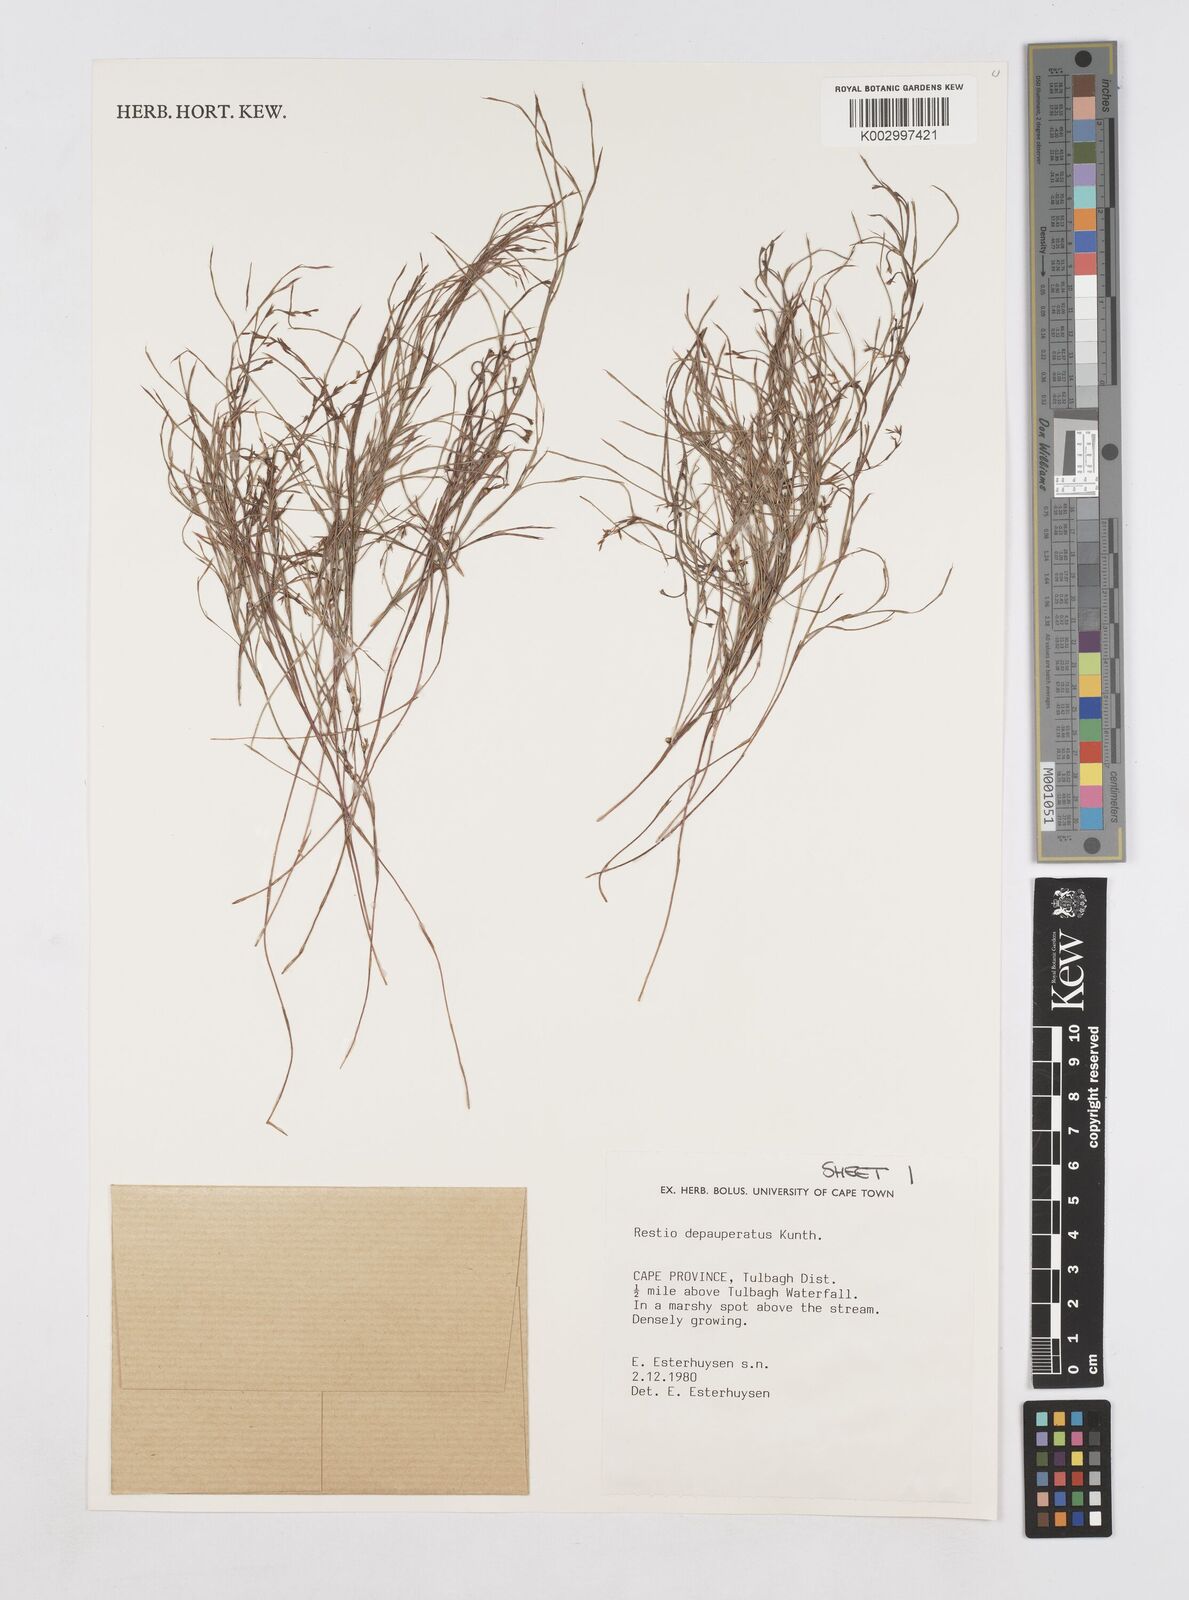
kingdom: Plantae
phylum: Tracheophyta
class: Liliopsida
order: Poales
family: Restionaceae
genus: Platycaulos
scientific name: Platycaulos depauperatus
